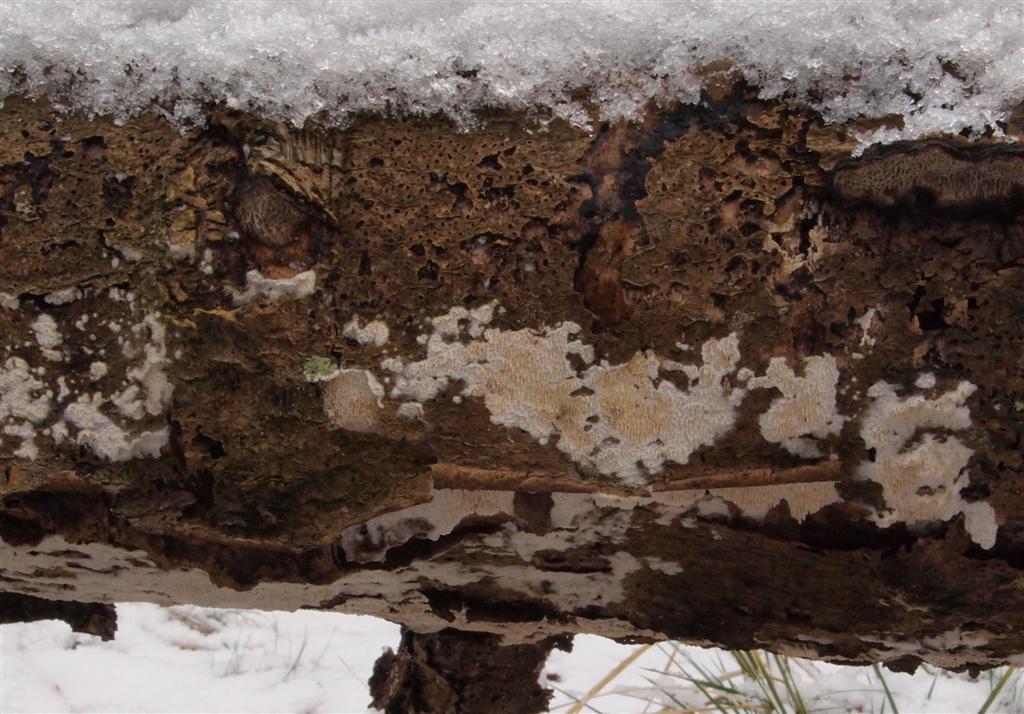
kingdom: Fungi
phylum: Basidiomycota
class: Agaricomycetes
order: Hymenochaetales
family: Schizoporaceae
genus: Xylodon
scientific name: Xylodon subtropicus
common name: labyrint-tandsvamp
